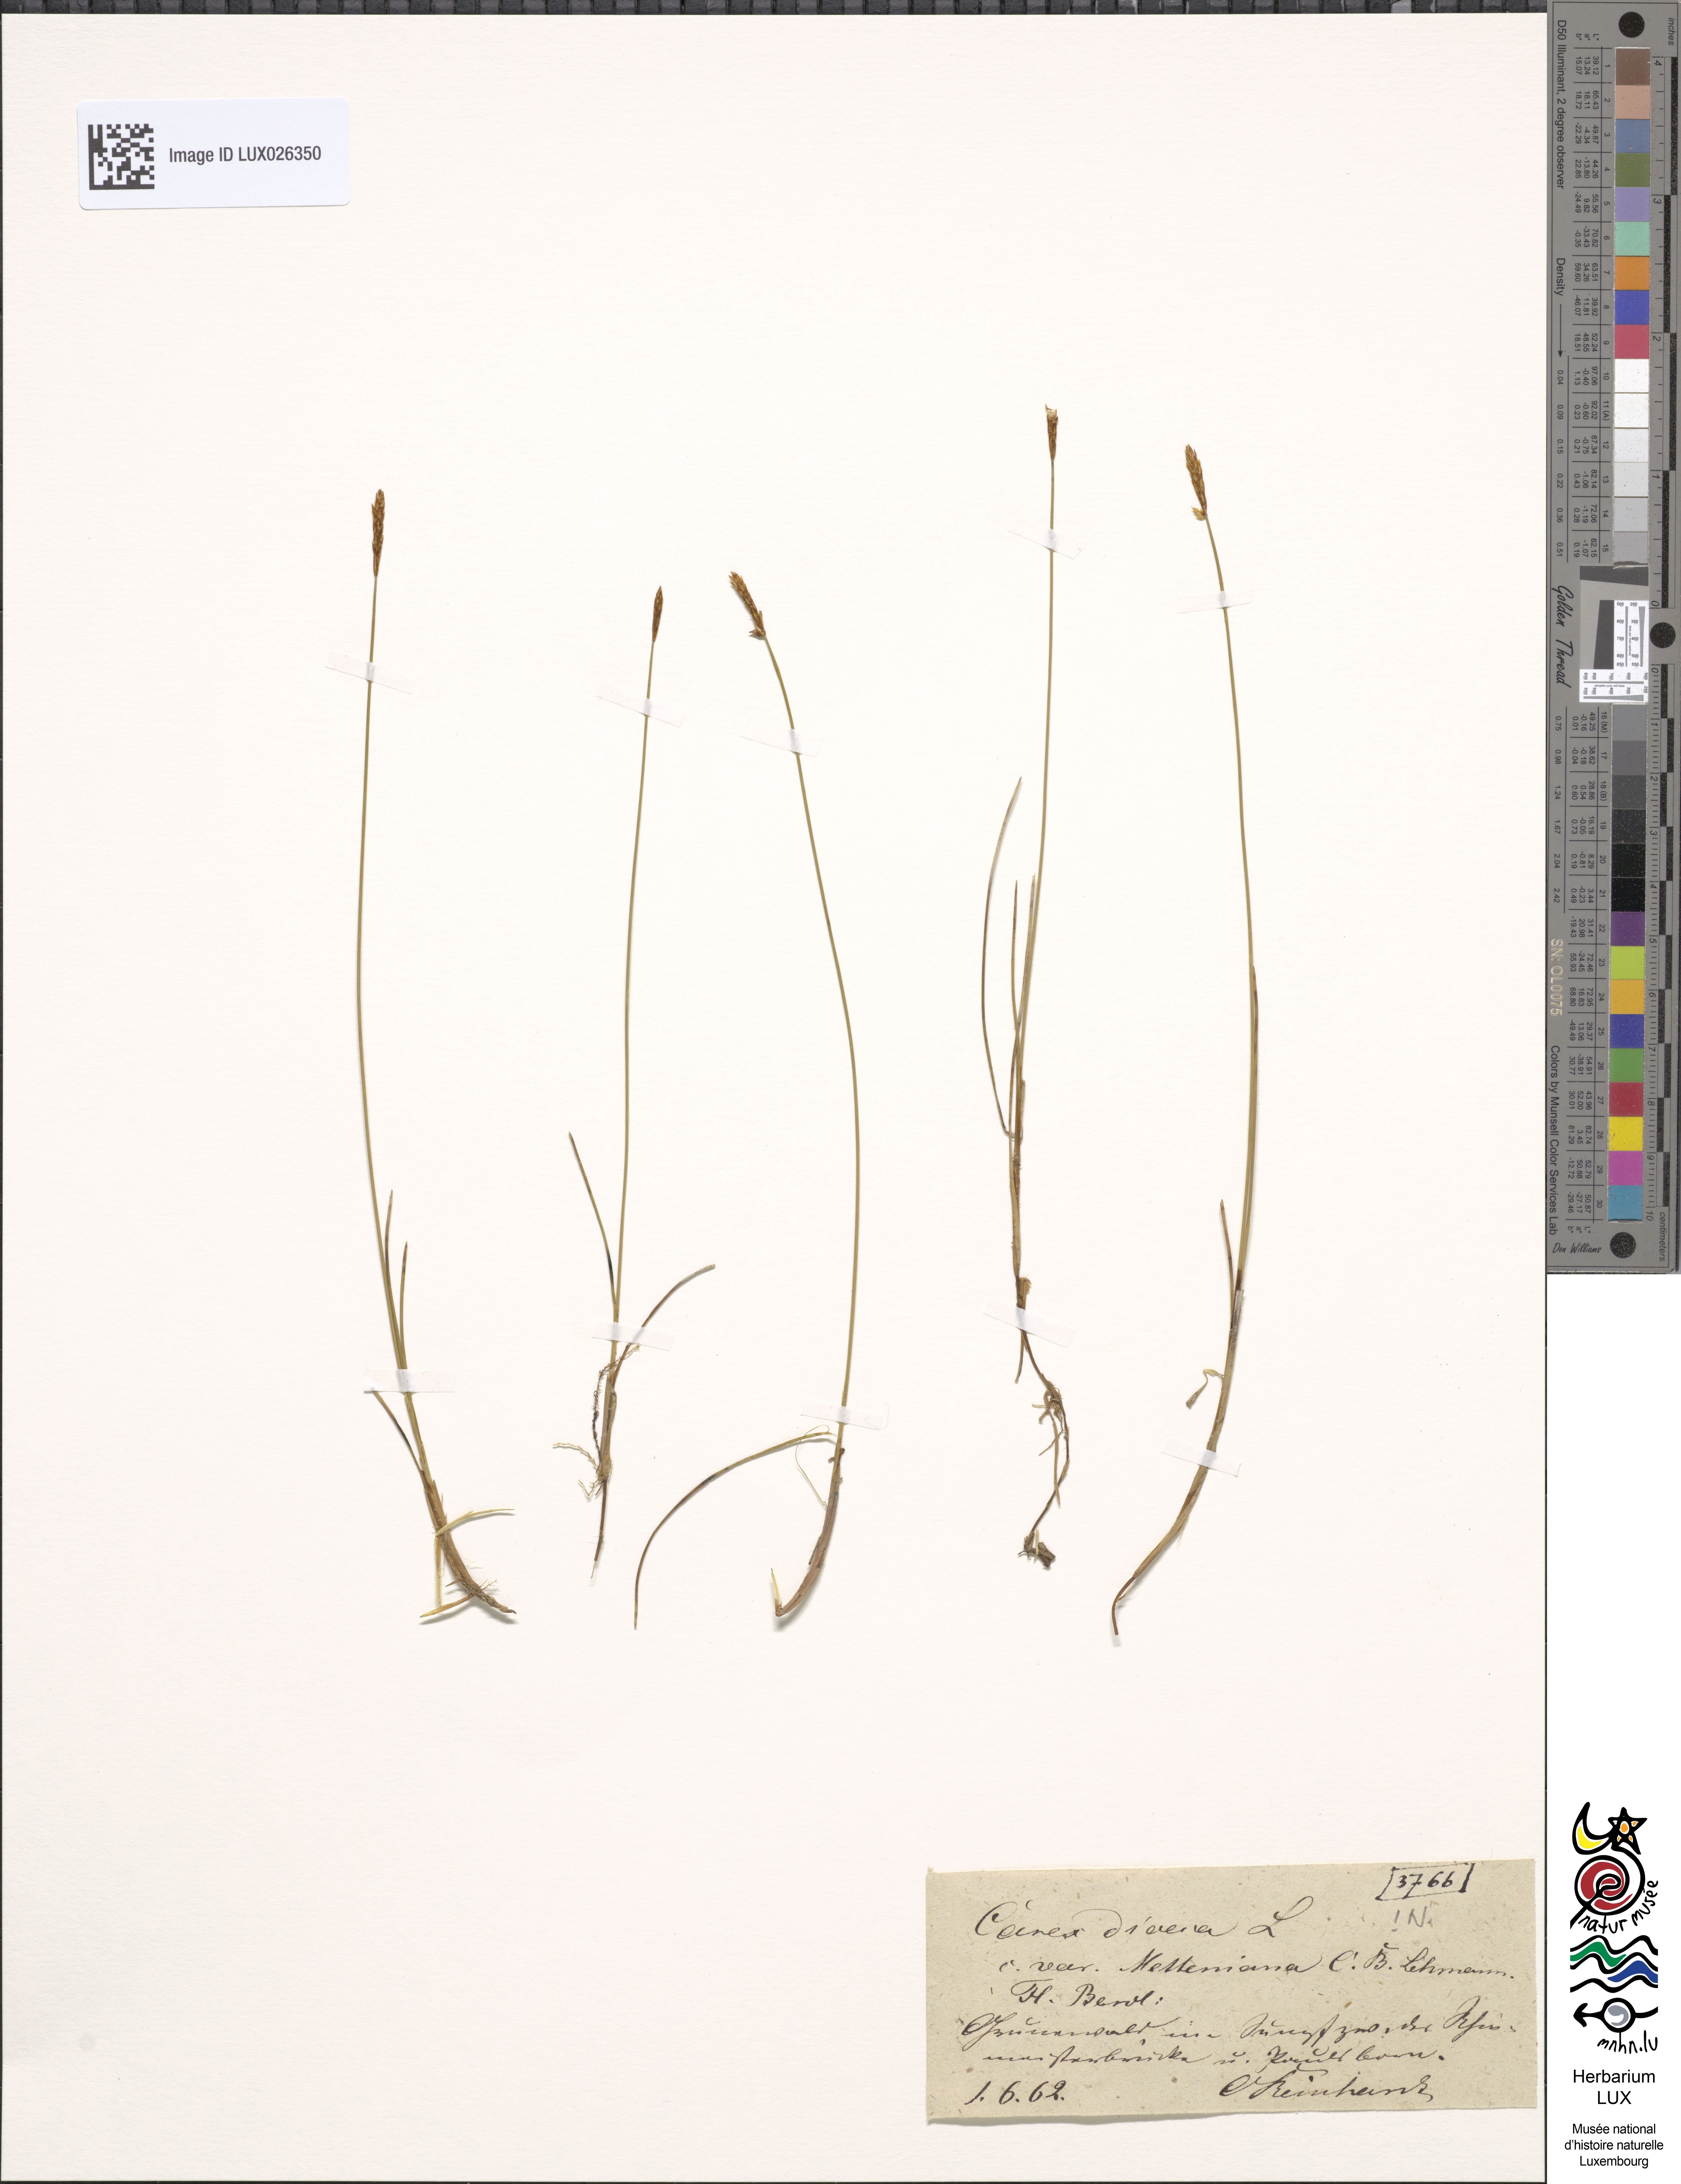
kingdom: Plantae
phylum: Tracheophyta
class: Liliopsida
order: Poales
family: Cyperaceae
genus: Carex
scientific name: Carex dioica
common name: Dioecious sedge
